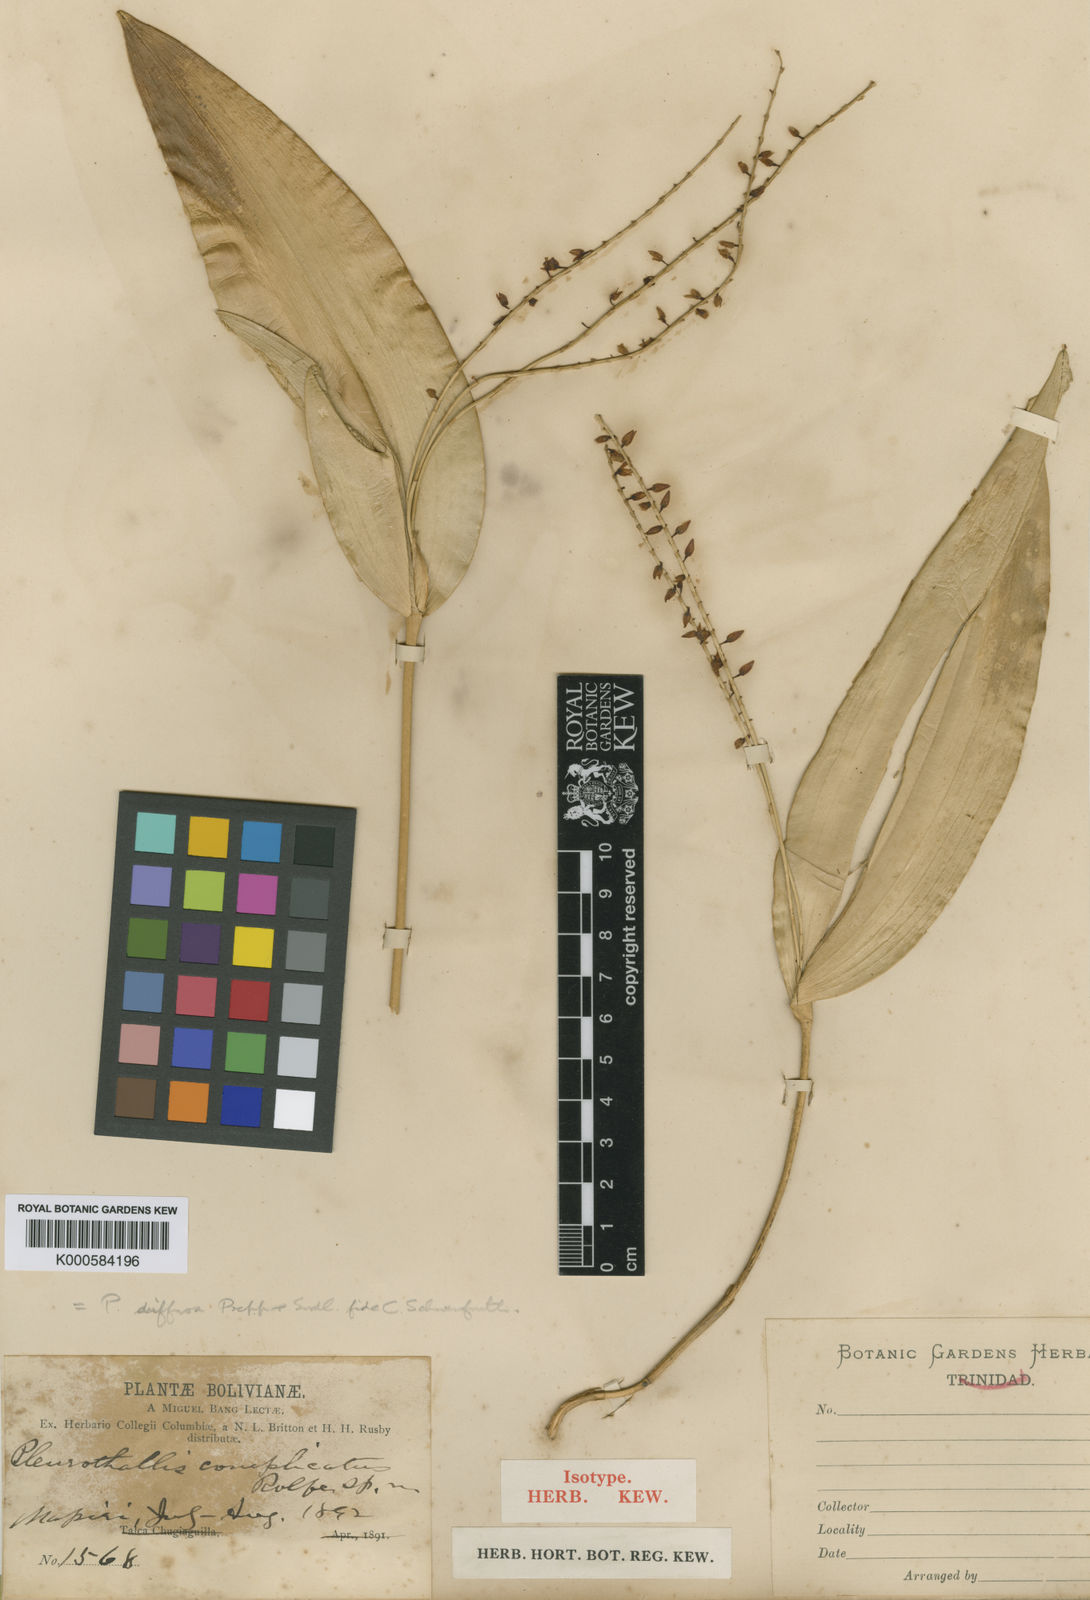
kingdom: Plantae
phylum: Tracheophyta
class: Liliopsida
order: Asparagales
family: Orchidaceae
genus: Pleurothallis
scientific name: Pleurothallis revoluta
